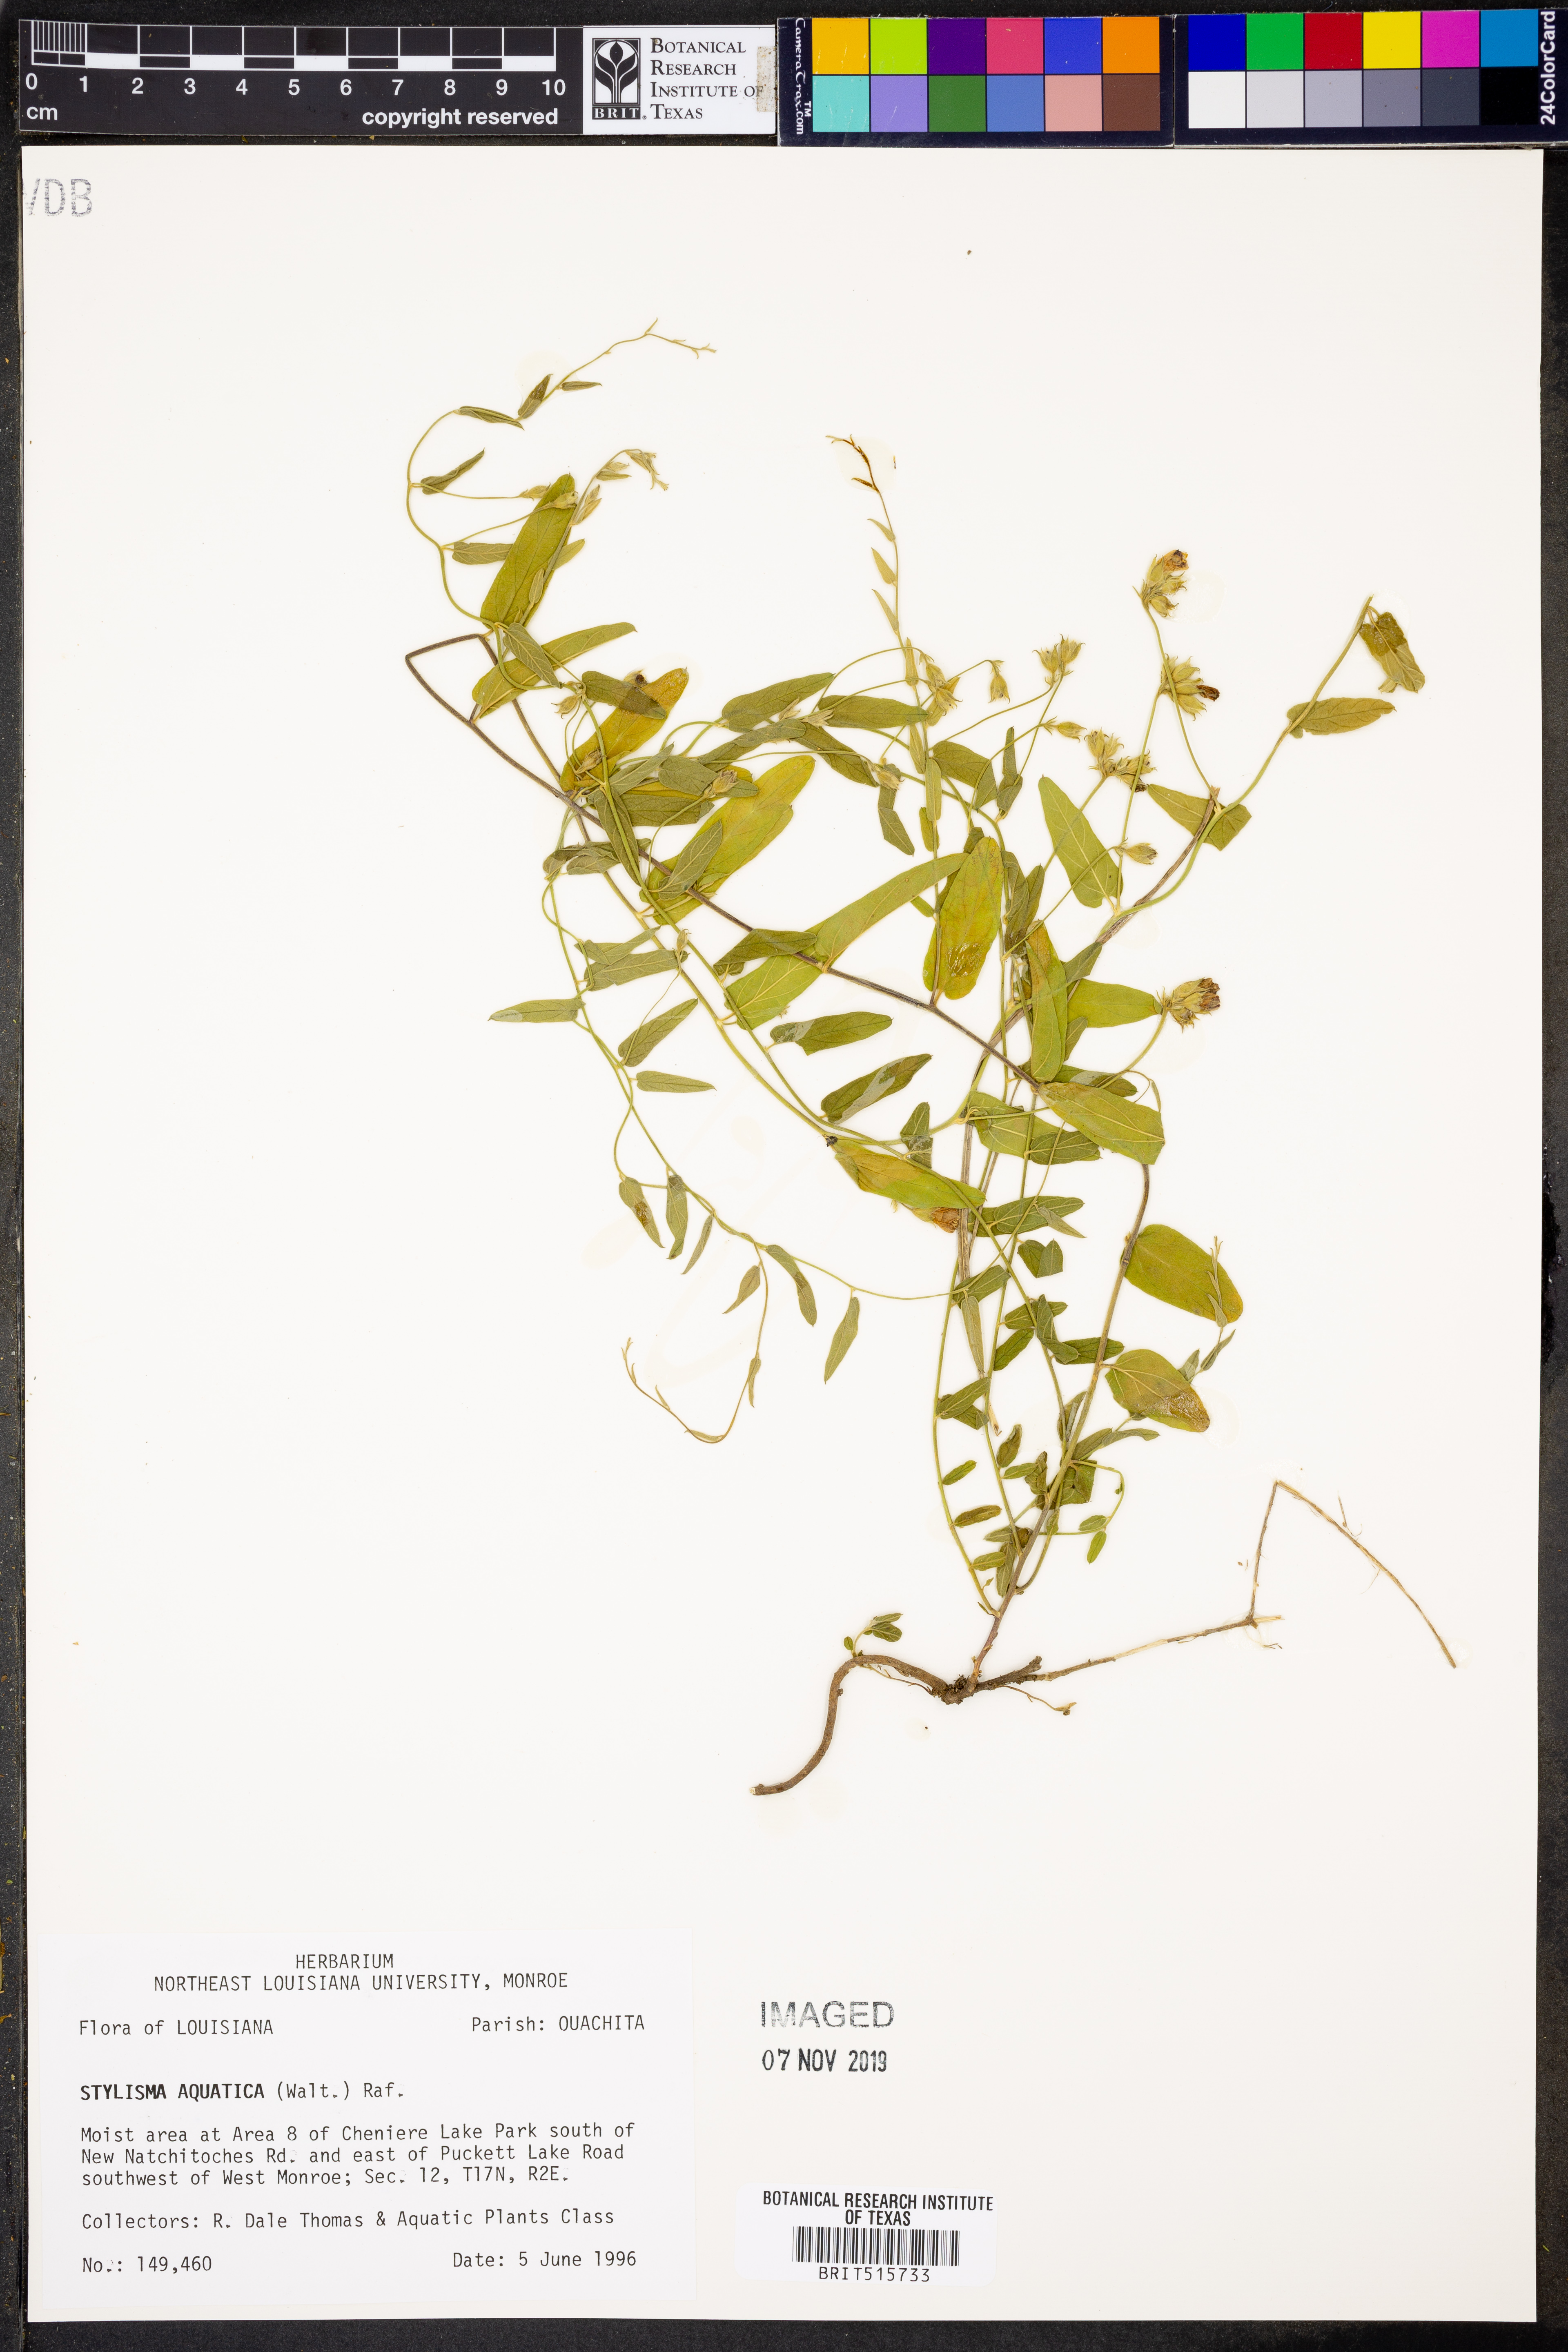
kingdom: Plantae
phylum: Tracheophyta
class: Magnoliopsida
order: Solanales
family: Convolvulaceae
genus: Stylisma
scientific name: Stylisma aquatica
